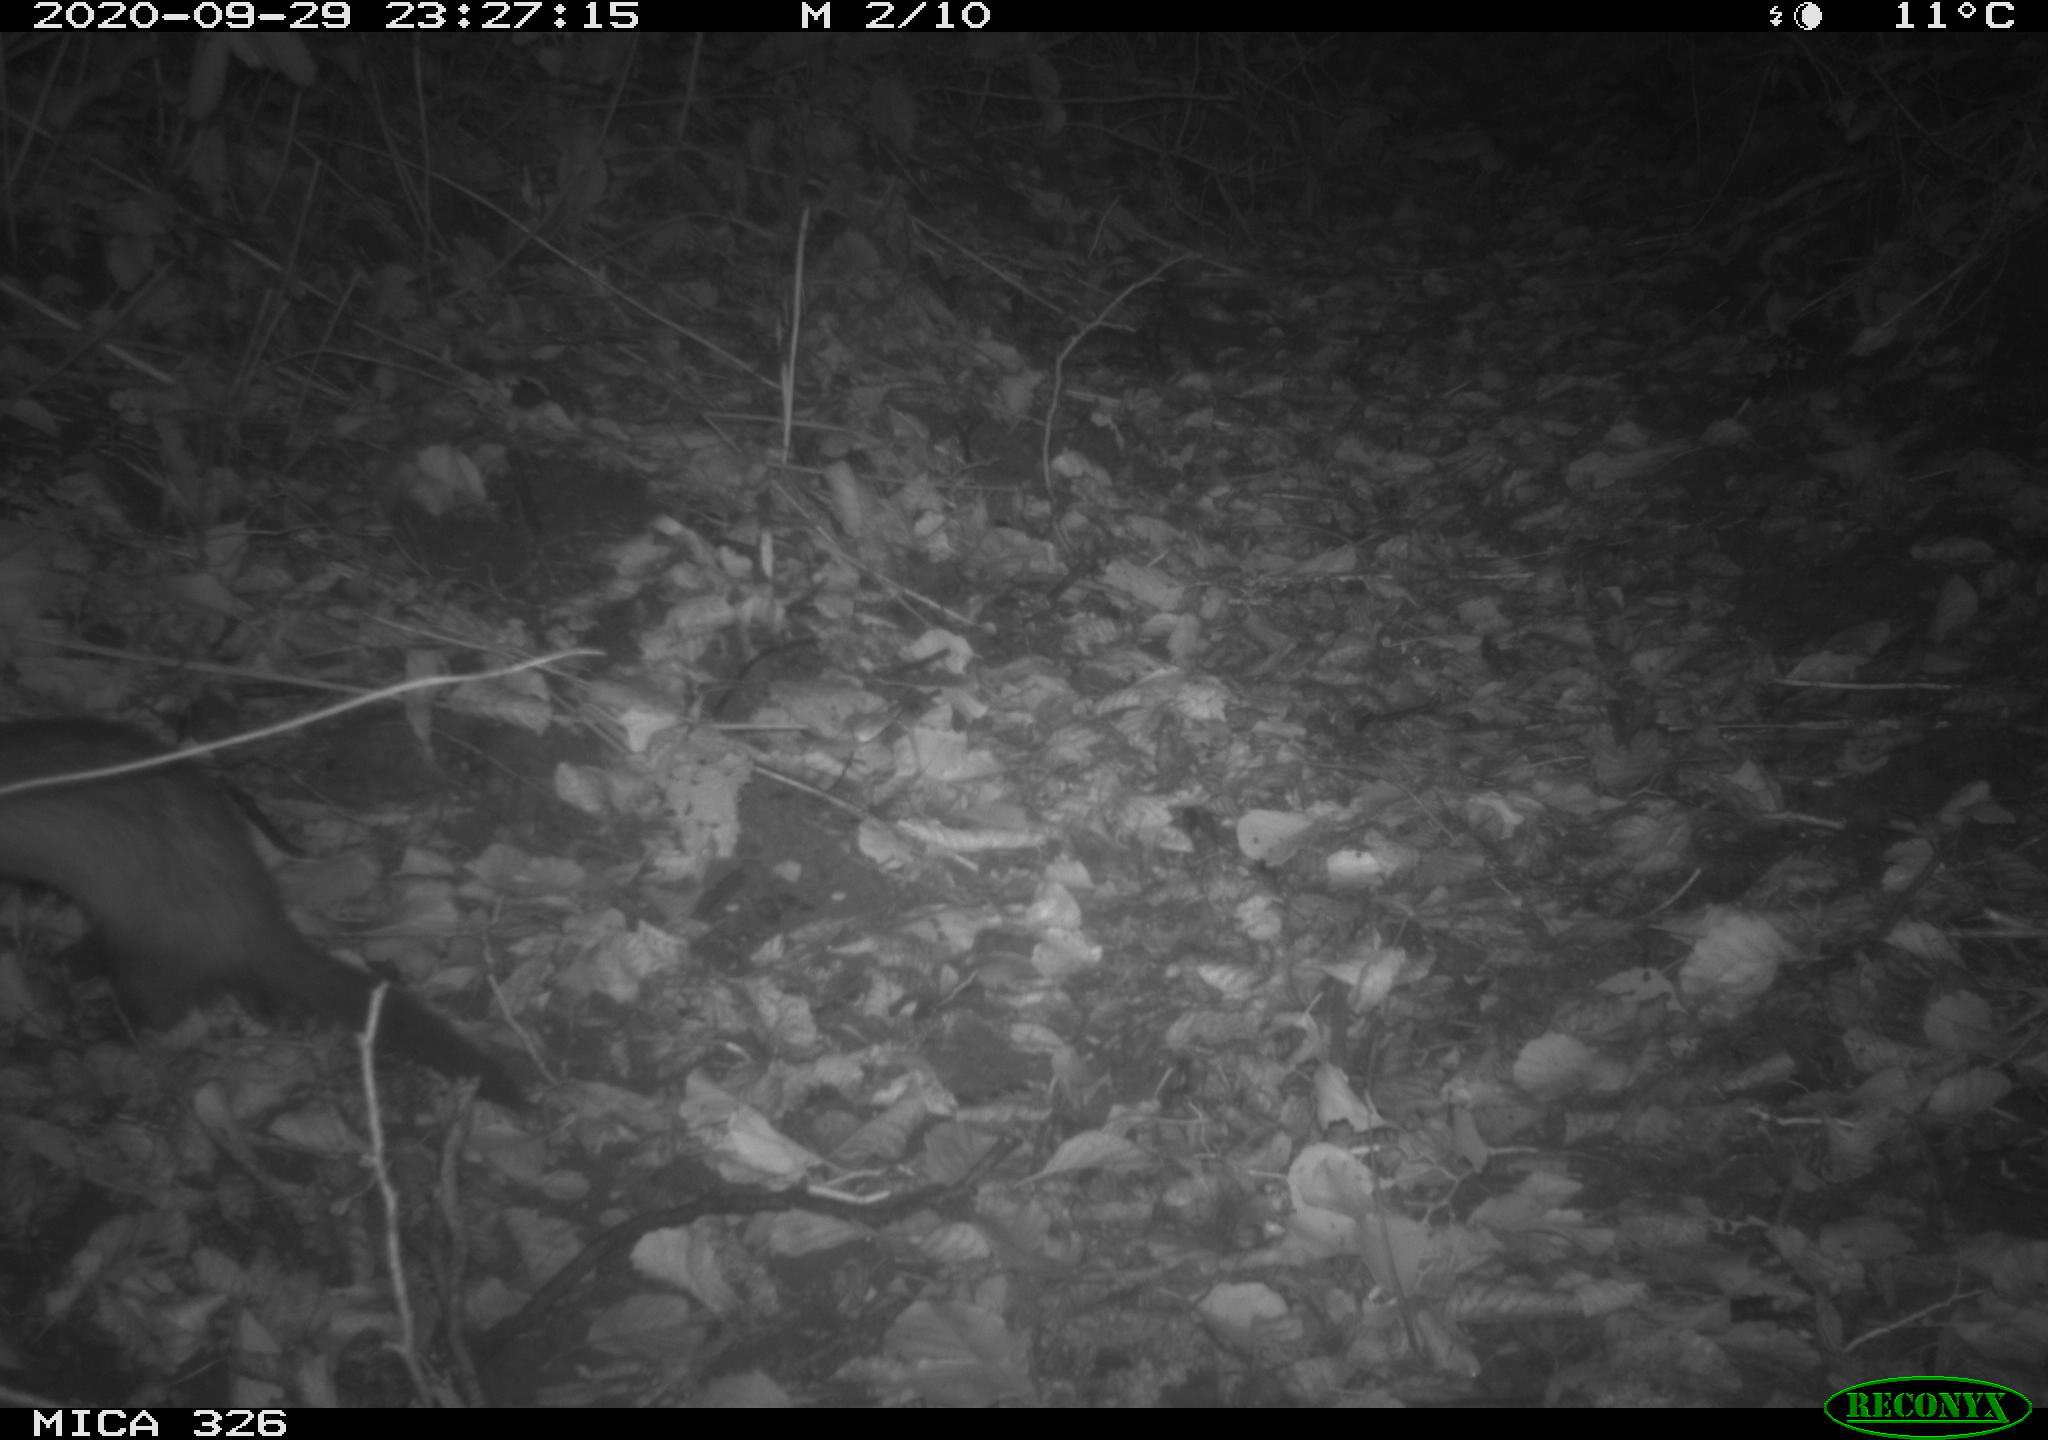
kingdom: Animalia
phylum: Chordata
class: Mammalia
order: Carnivora
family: Mustelidae
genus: Martes
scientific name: Martes martes
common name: European pine marten
